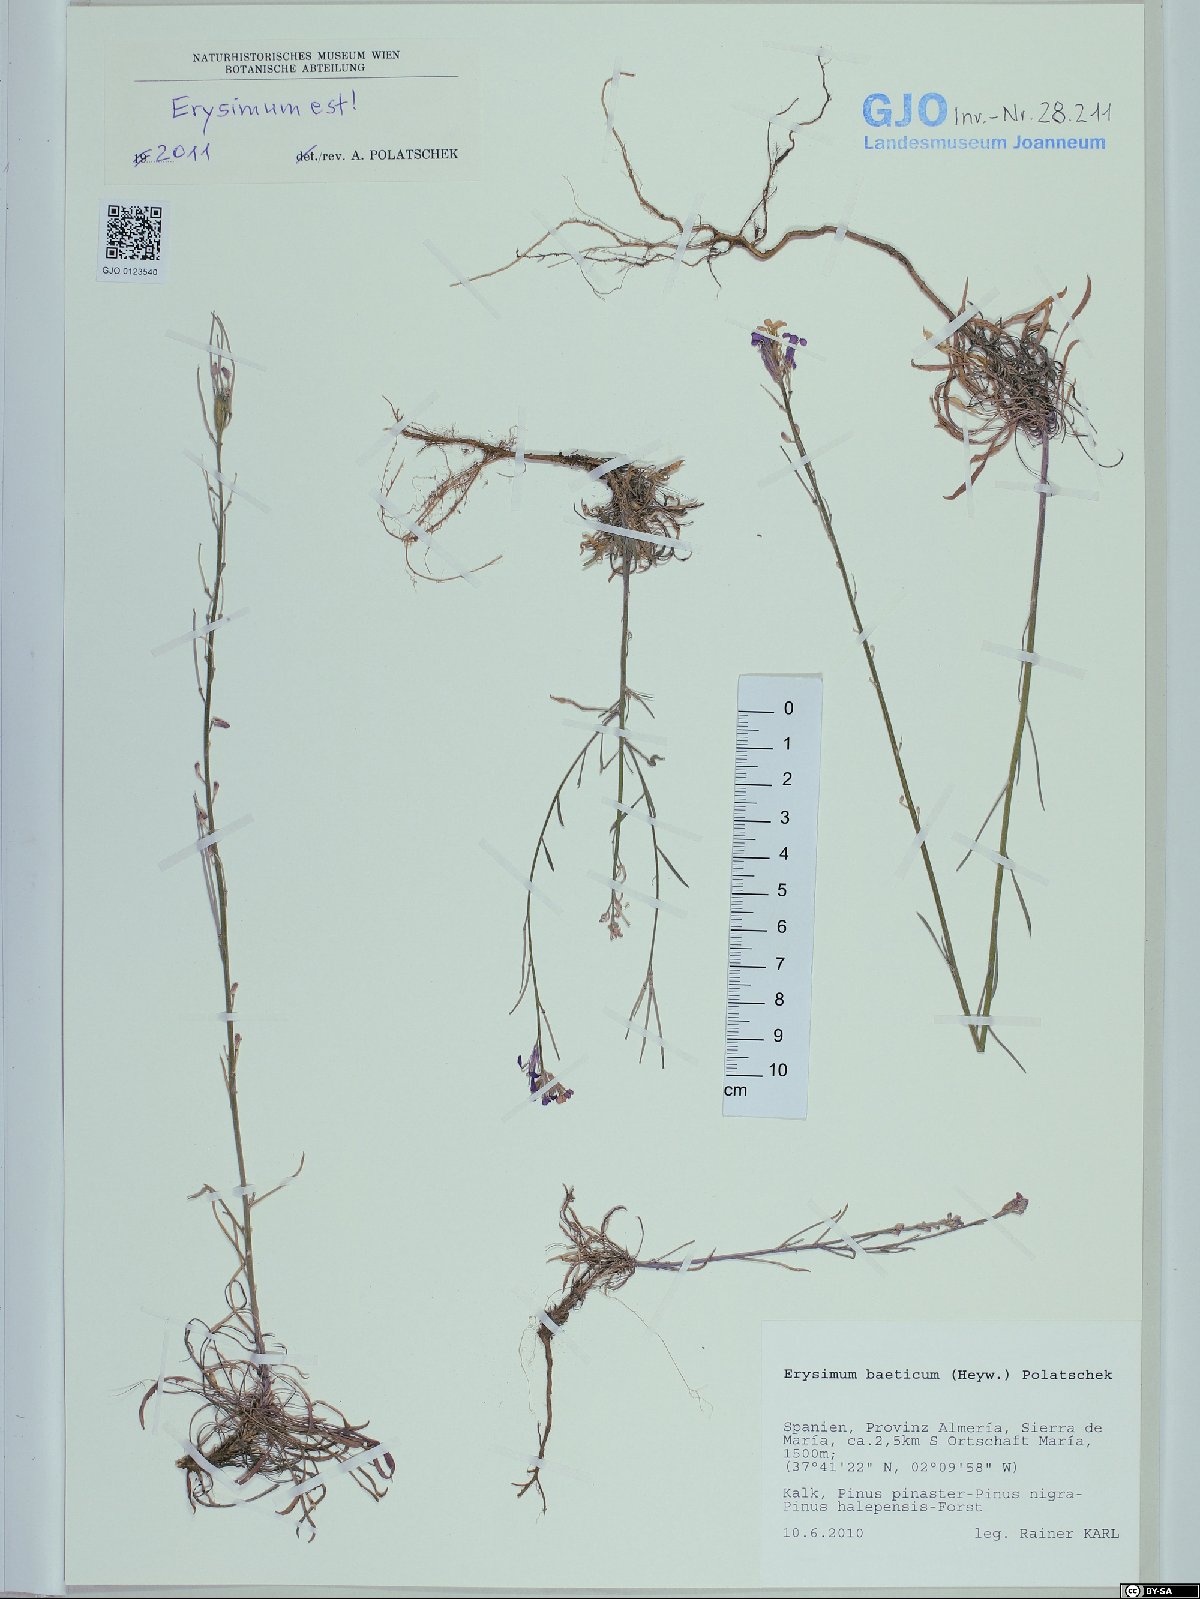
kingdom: Plantae
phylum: Tracheophyta
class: Magnoliopsida
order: Brassicales
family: Brassicaceae
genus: Erysimum
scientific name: Erysimum baeticum
